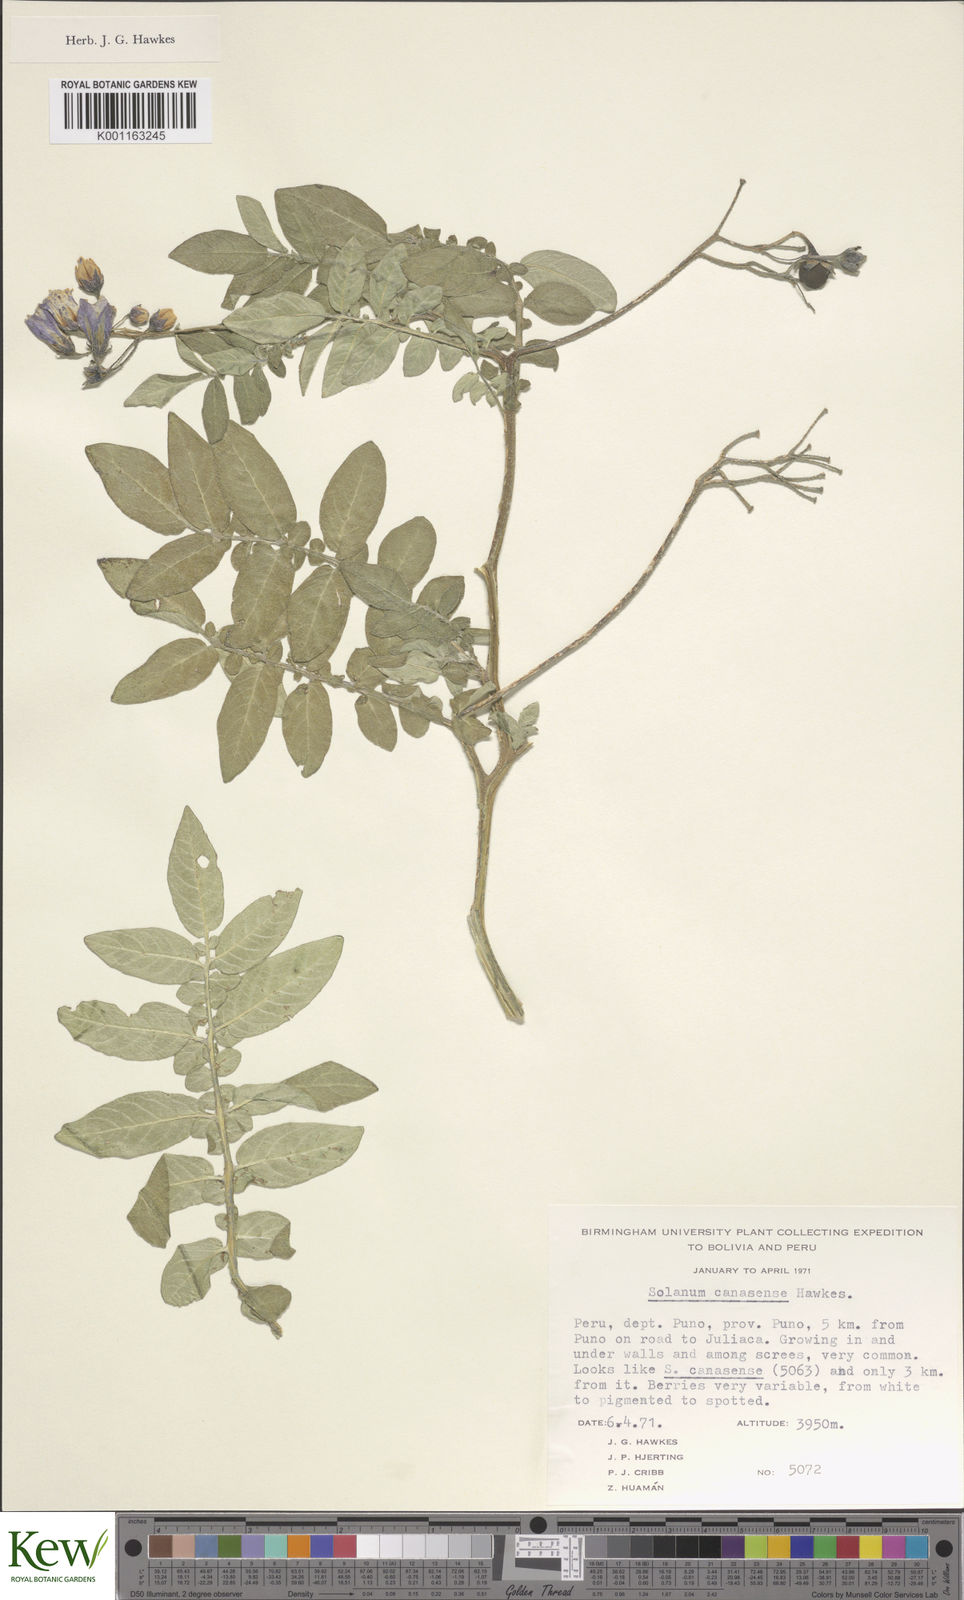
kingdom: Plantae
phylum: Tracheophyta
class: Magnoliopsida
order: Solanales
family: Solanaceae
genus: Solanum
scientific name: Solanum candolleanum
